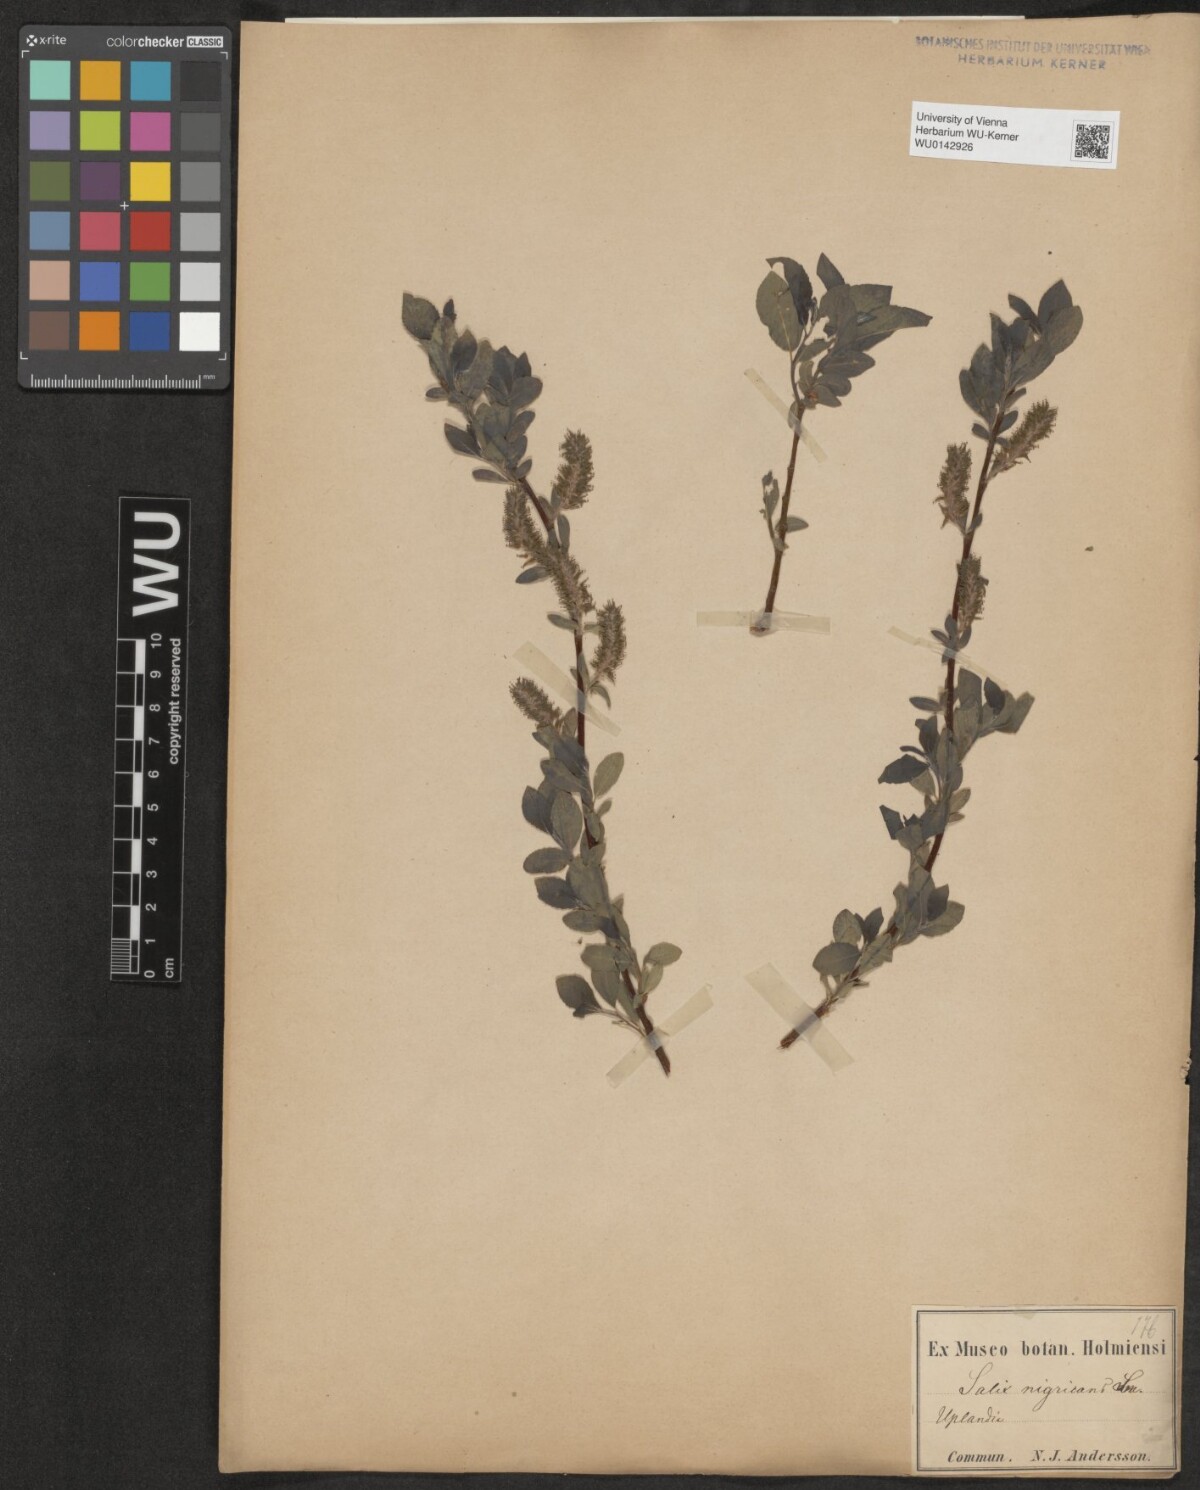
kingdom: Plantae
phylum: Tracheophyta
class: Magnoliopsida
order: Malpighiales
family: Salicaceae
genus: Salix
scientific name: Salix myrsinifolia
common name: Dark-leaved willow
